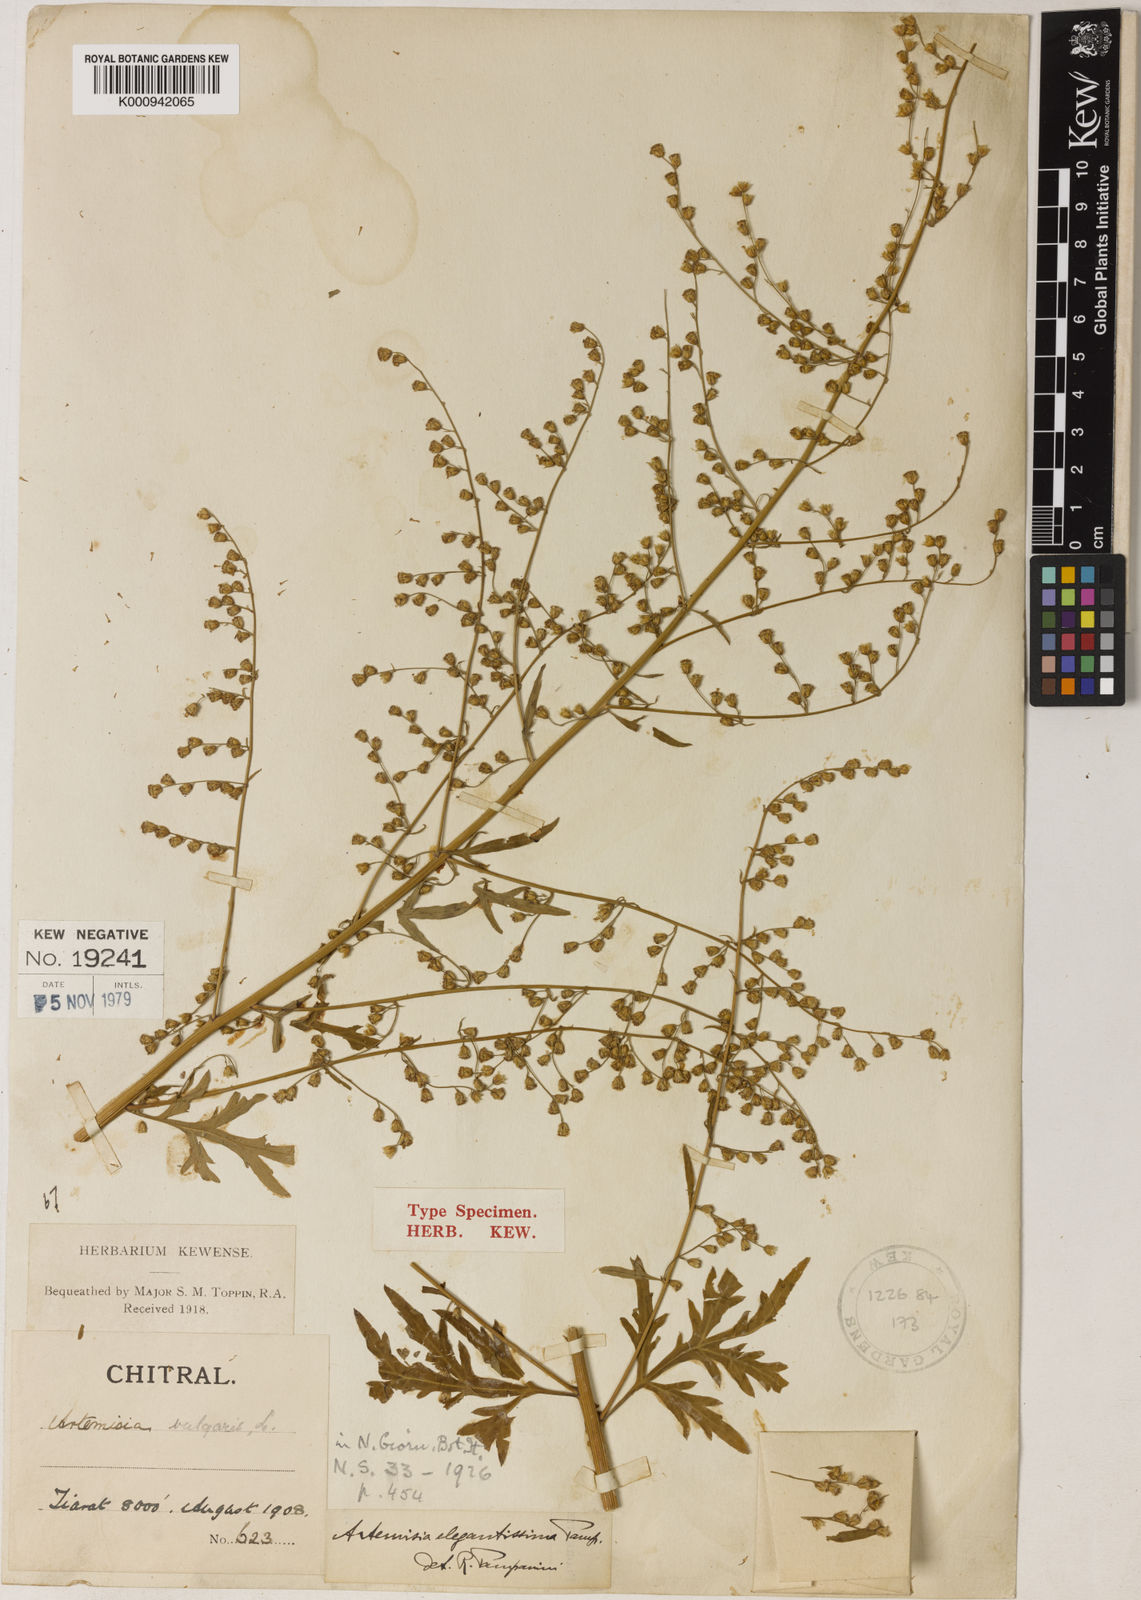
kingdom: Plantae
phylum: Tracheophyta
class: Magnoliopsida
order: Asterales
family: Asteraceae
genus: Artemisia
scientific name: Artemisia
